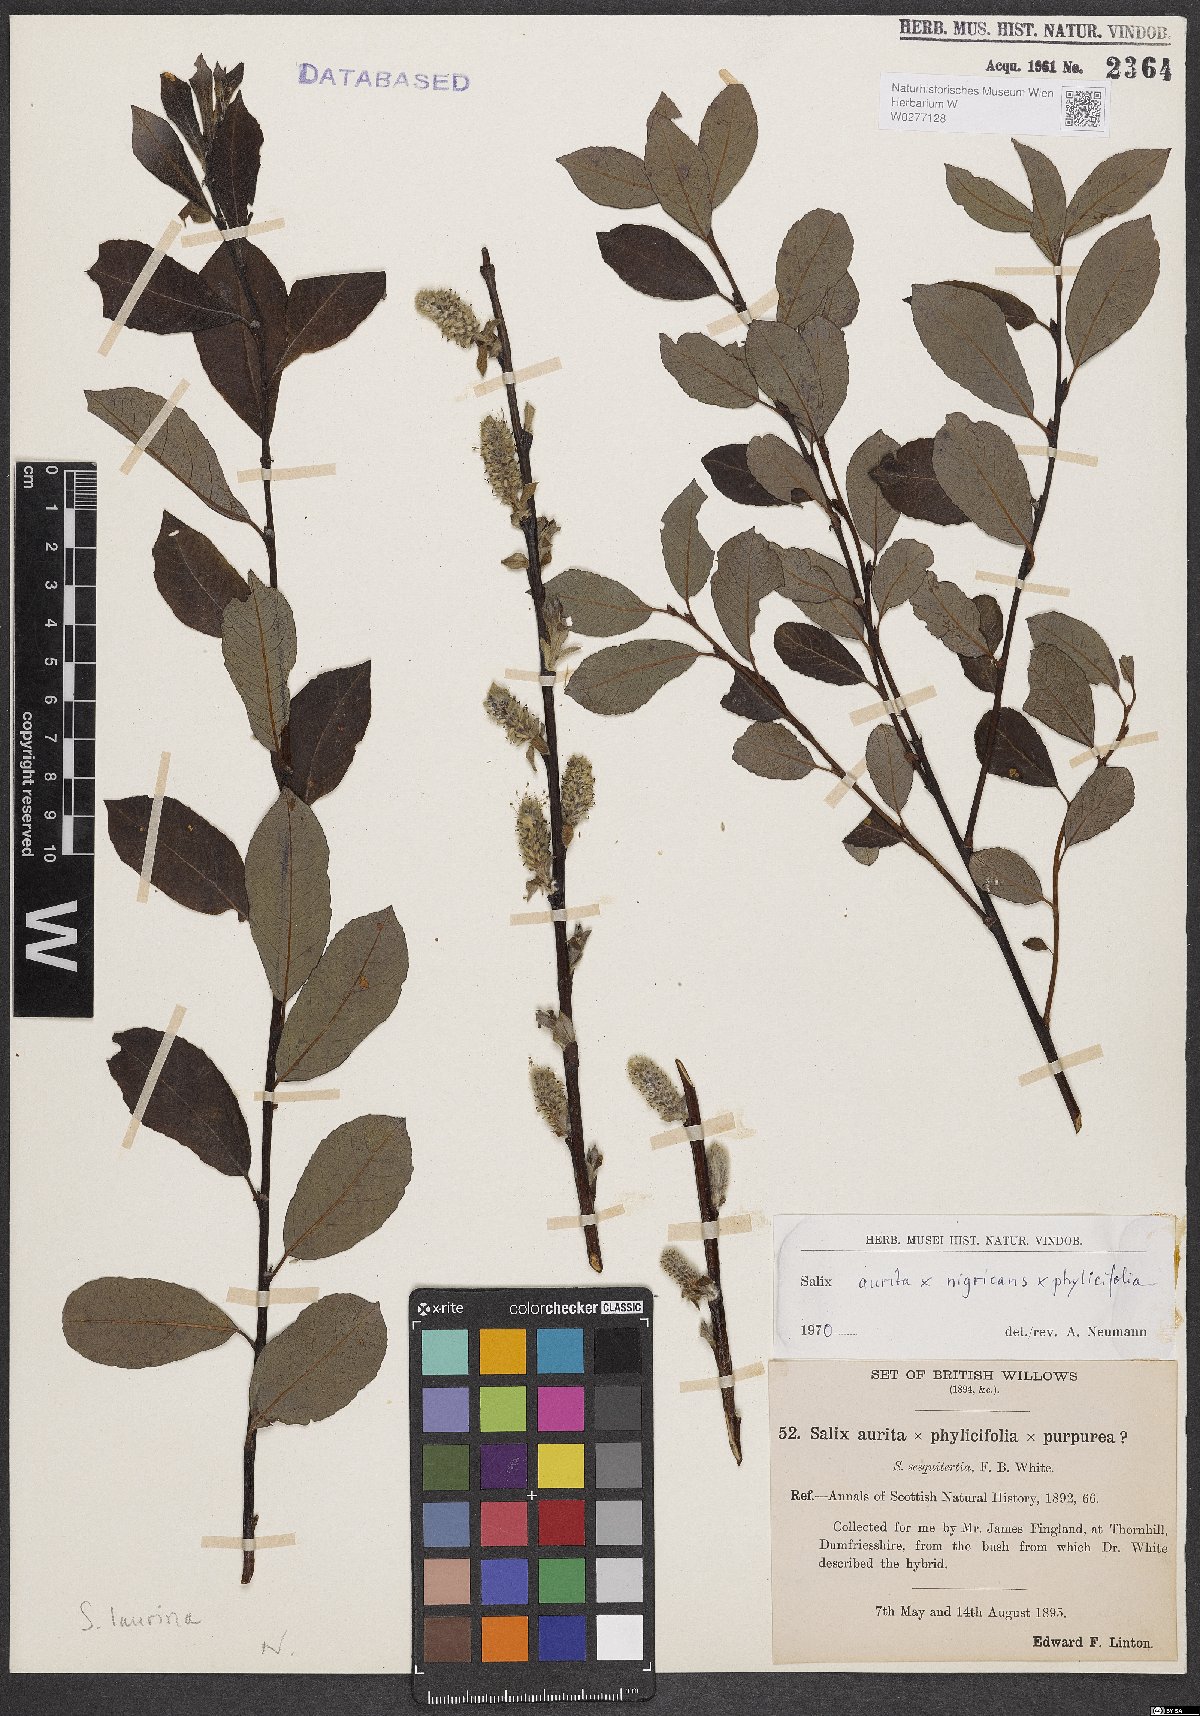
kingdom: Plantae
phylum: Tracheophyta
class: Magnoliopsida
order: Malpighiales
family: Salicaceae
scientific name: Salicaceae
